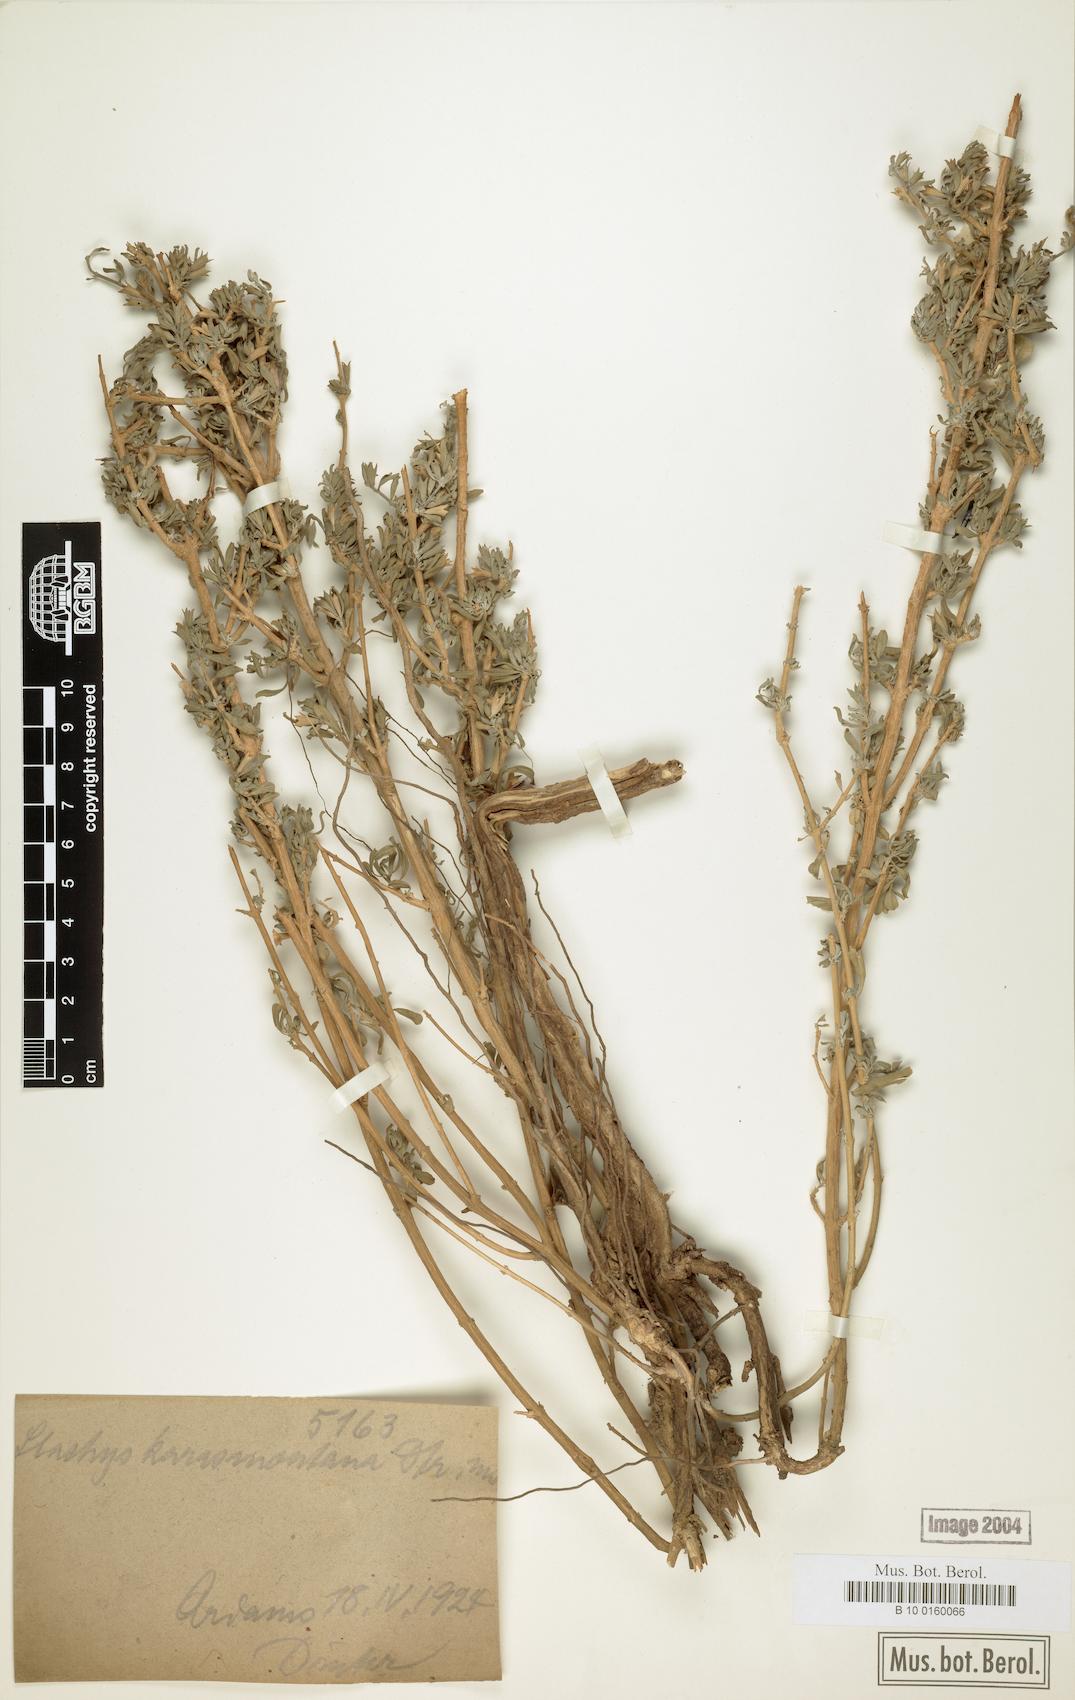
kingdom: Plantae
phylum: Tracheophyta
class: Magnoliopsida
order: Lamiales
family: Lamiaceae
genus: Stachys
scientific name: Stachys spathulata
